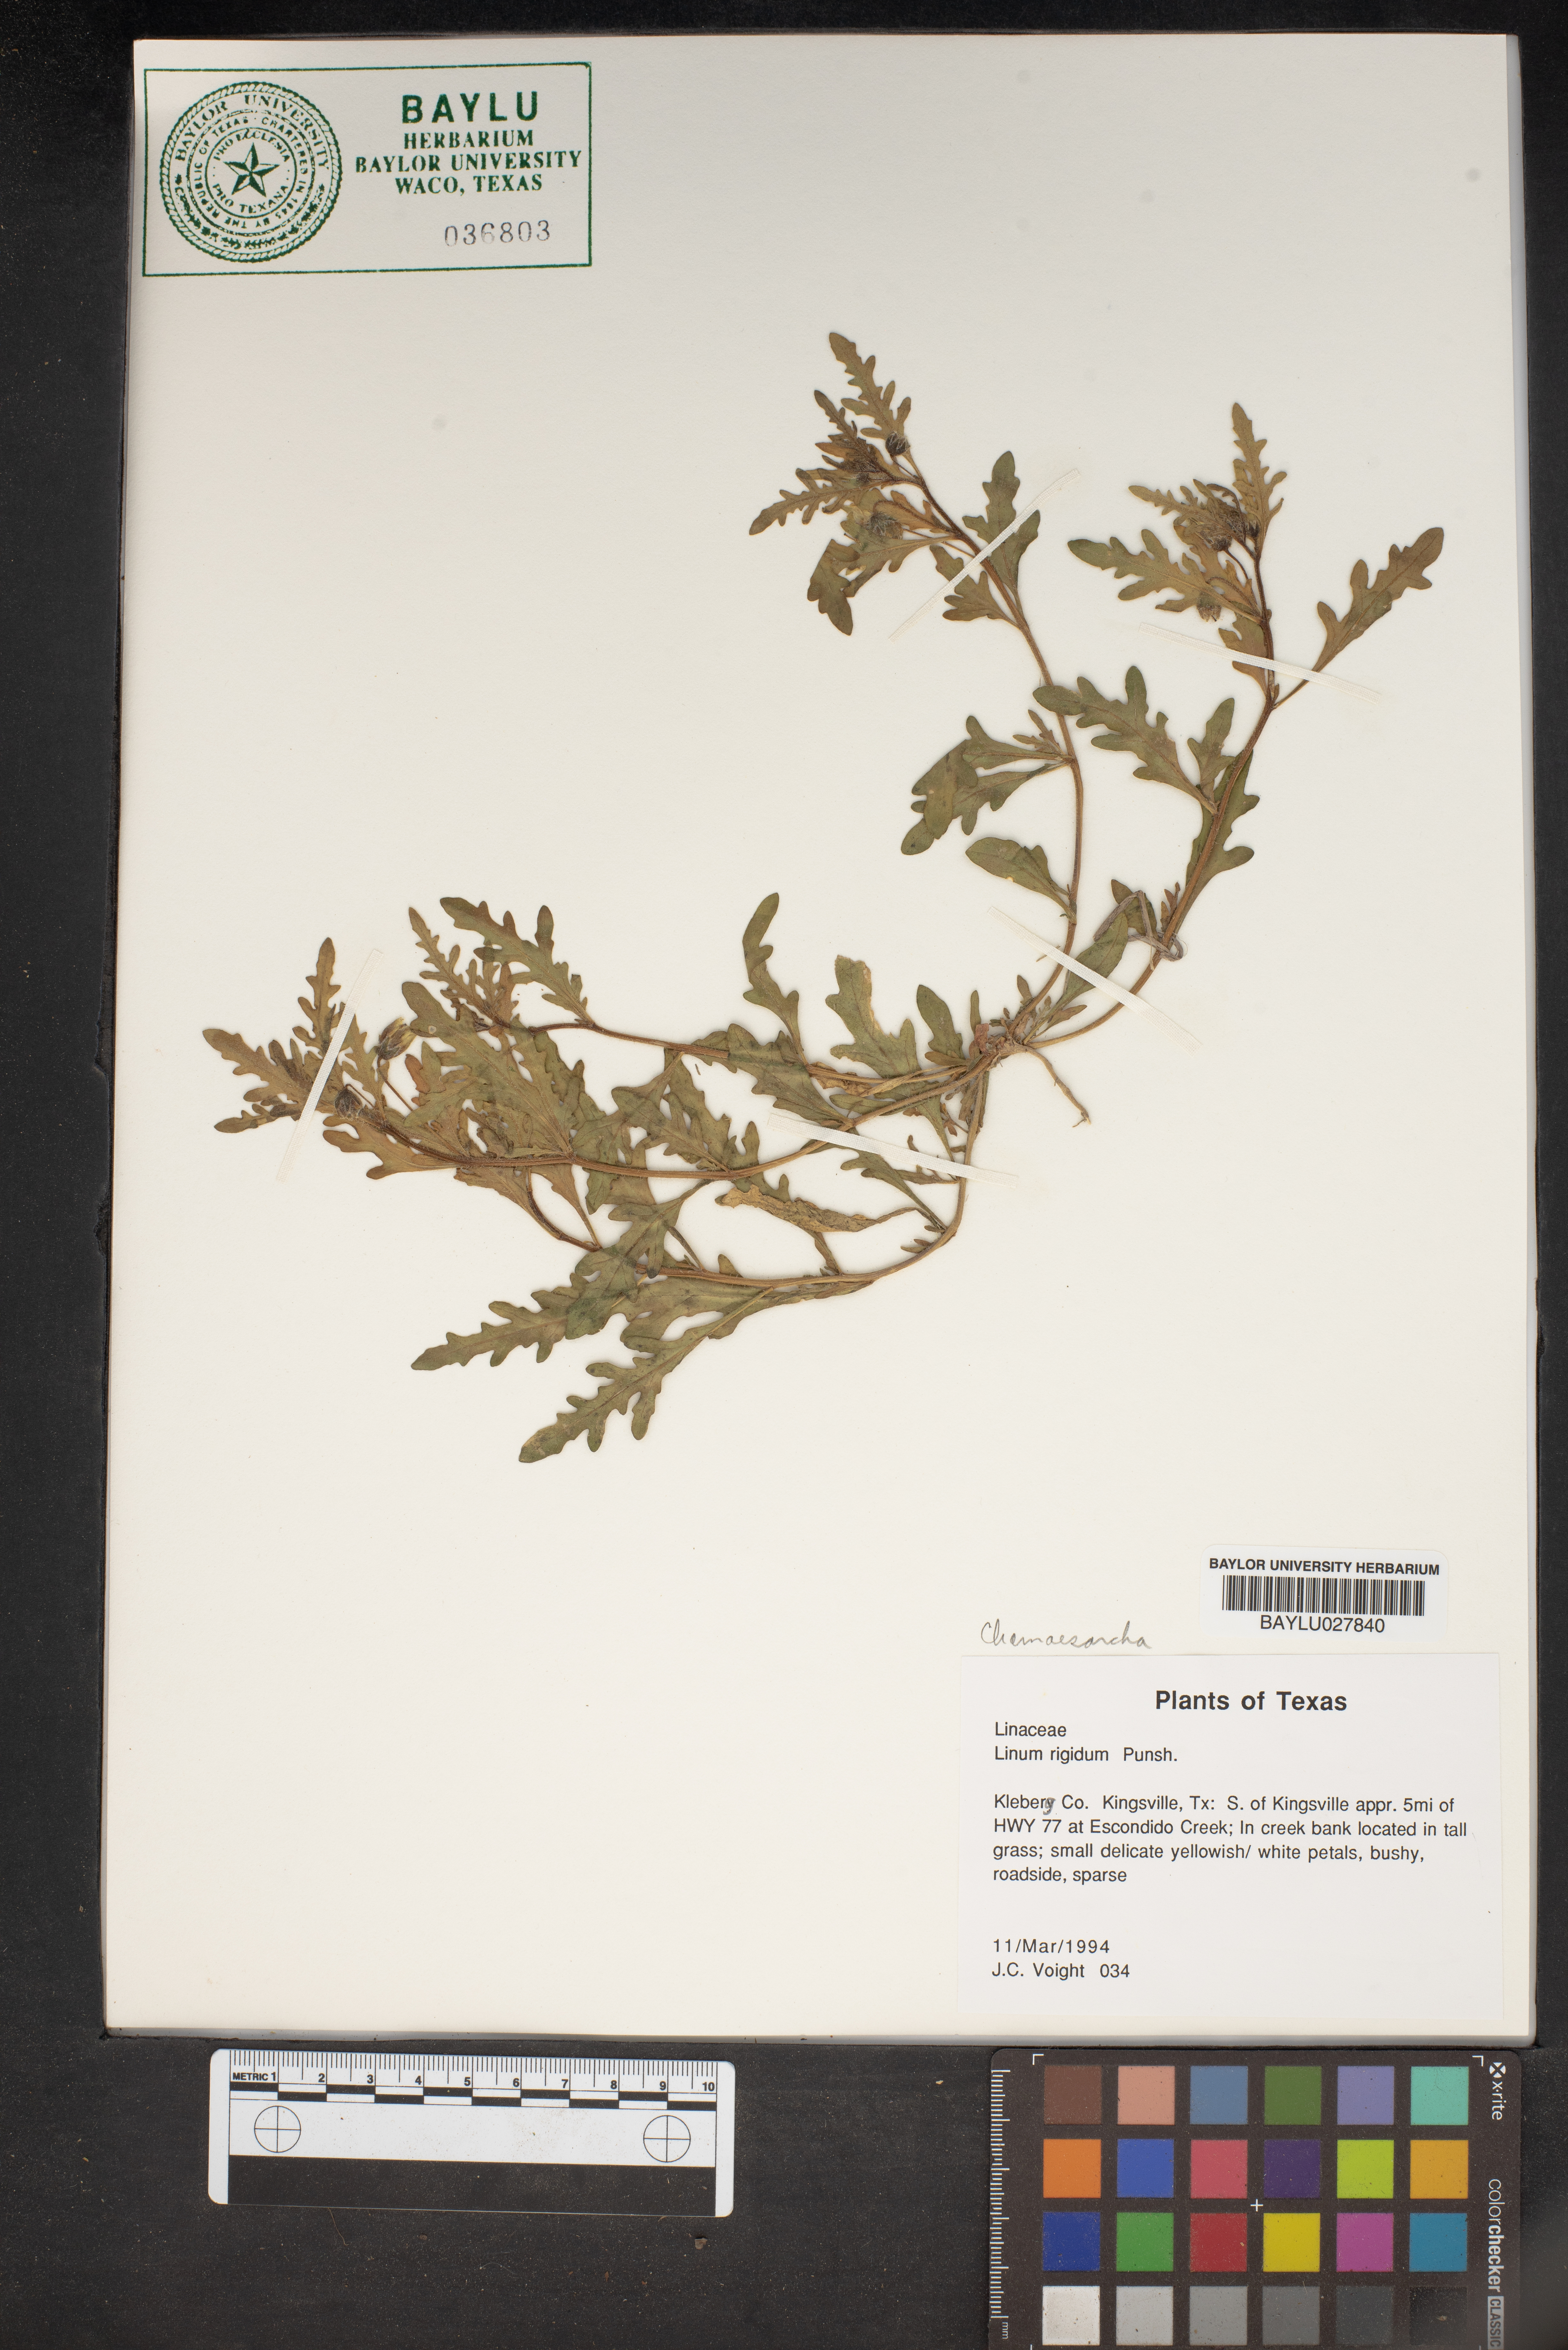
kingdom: Plantae
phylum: Tracheophyta
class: Magnoliopsida
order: Malpighiales
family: Linaceae
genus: Linum
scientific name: Linum rigidum
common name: Stiff-stem flax
